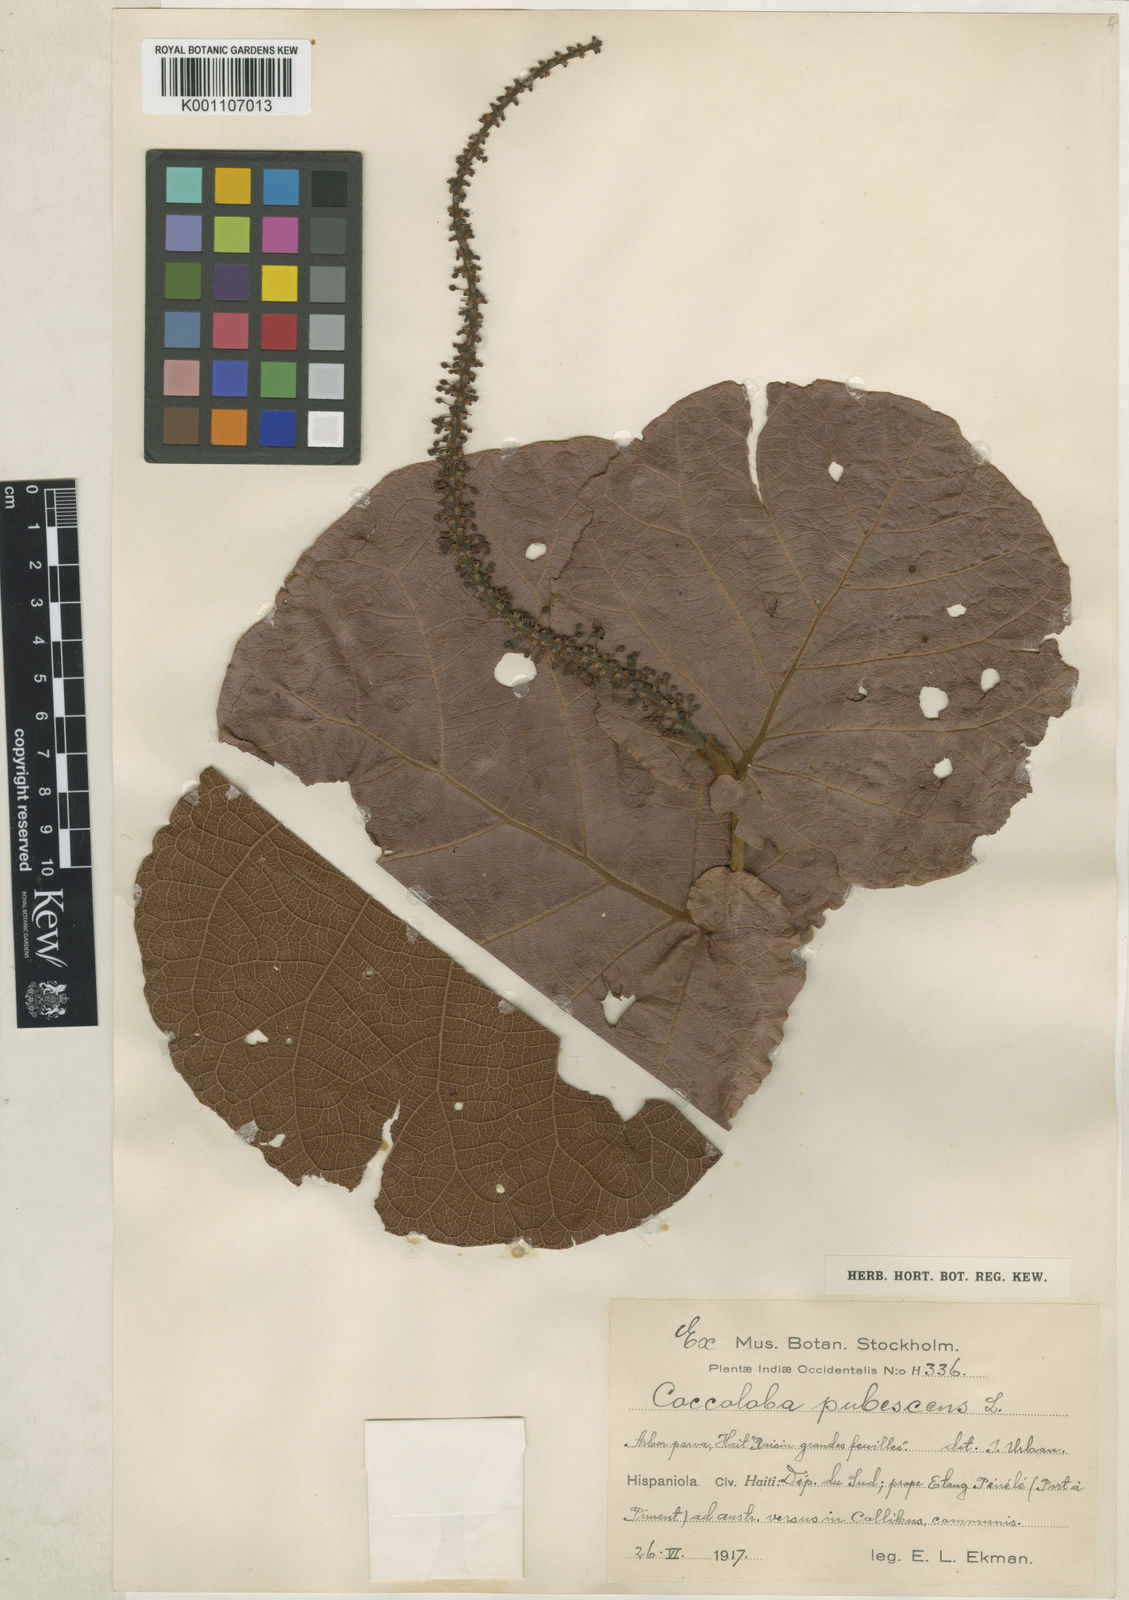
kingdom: Plantae
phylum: Tracheophyta
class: Magnoliopsida
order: Caryophyllales
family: Polygonaceae
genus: Coccoloba
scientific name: Coccoloba pubescens
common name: Mountain-grape
